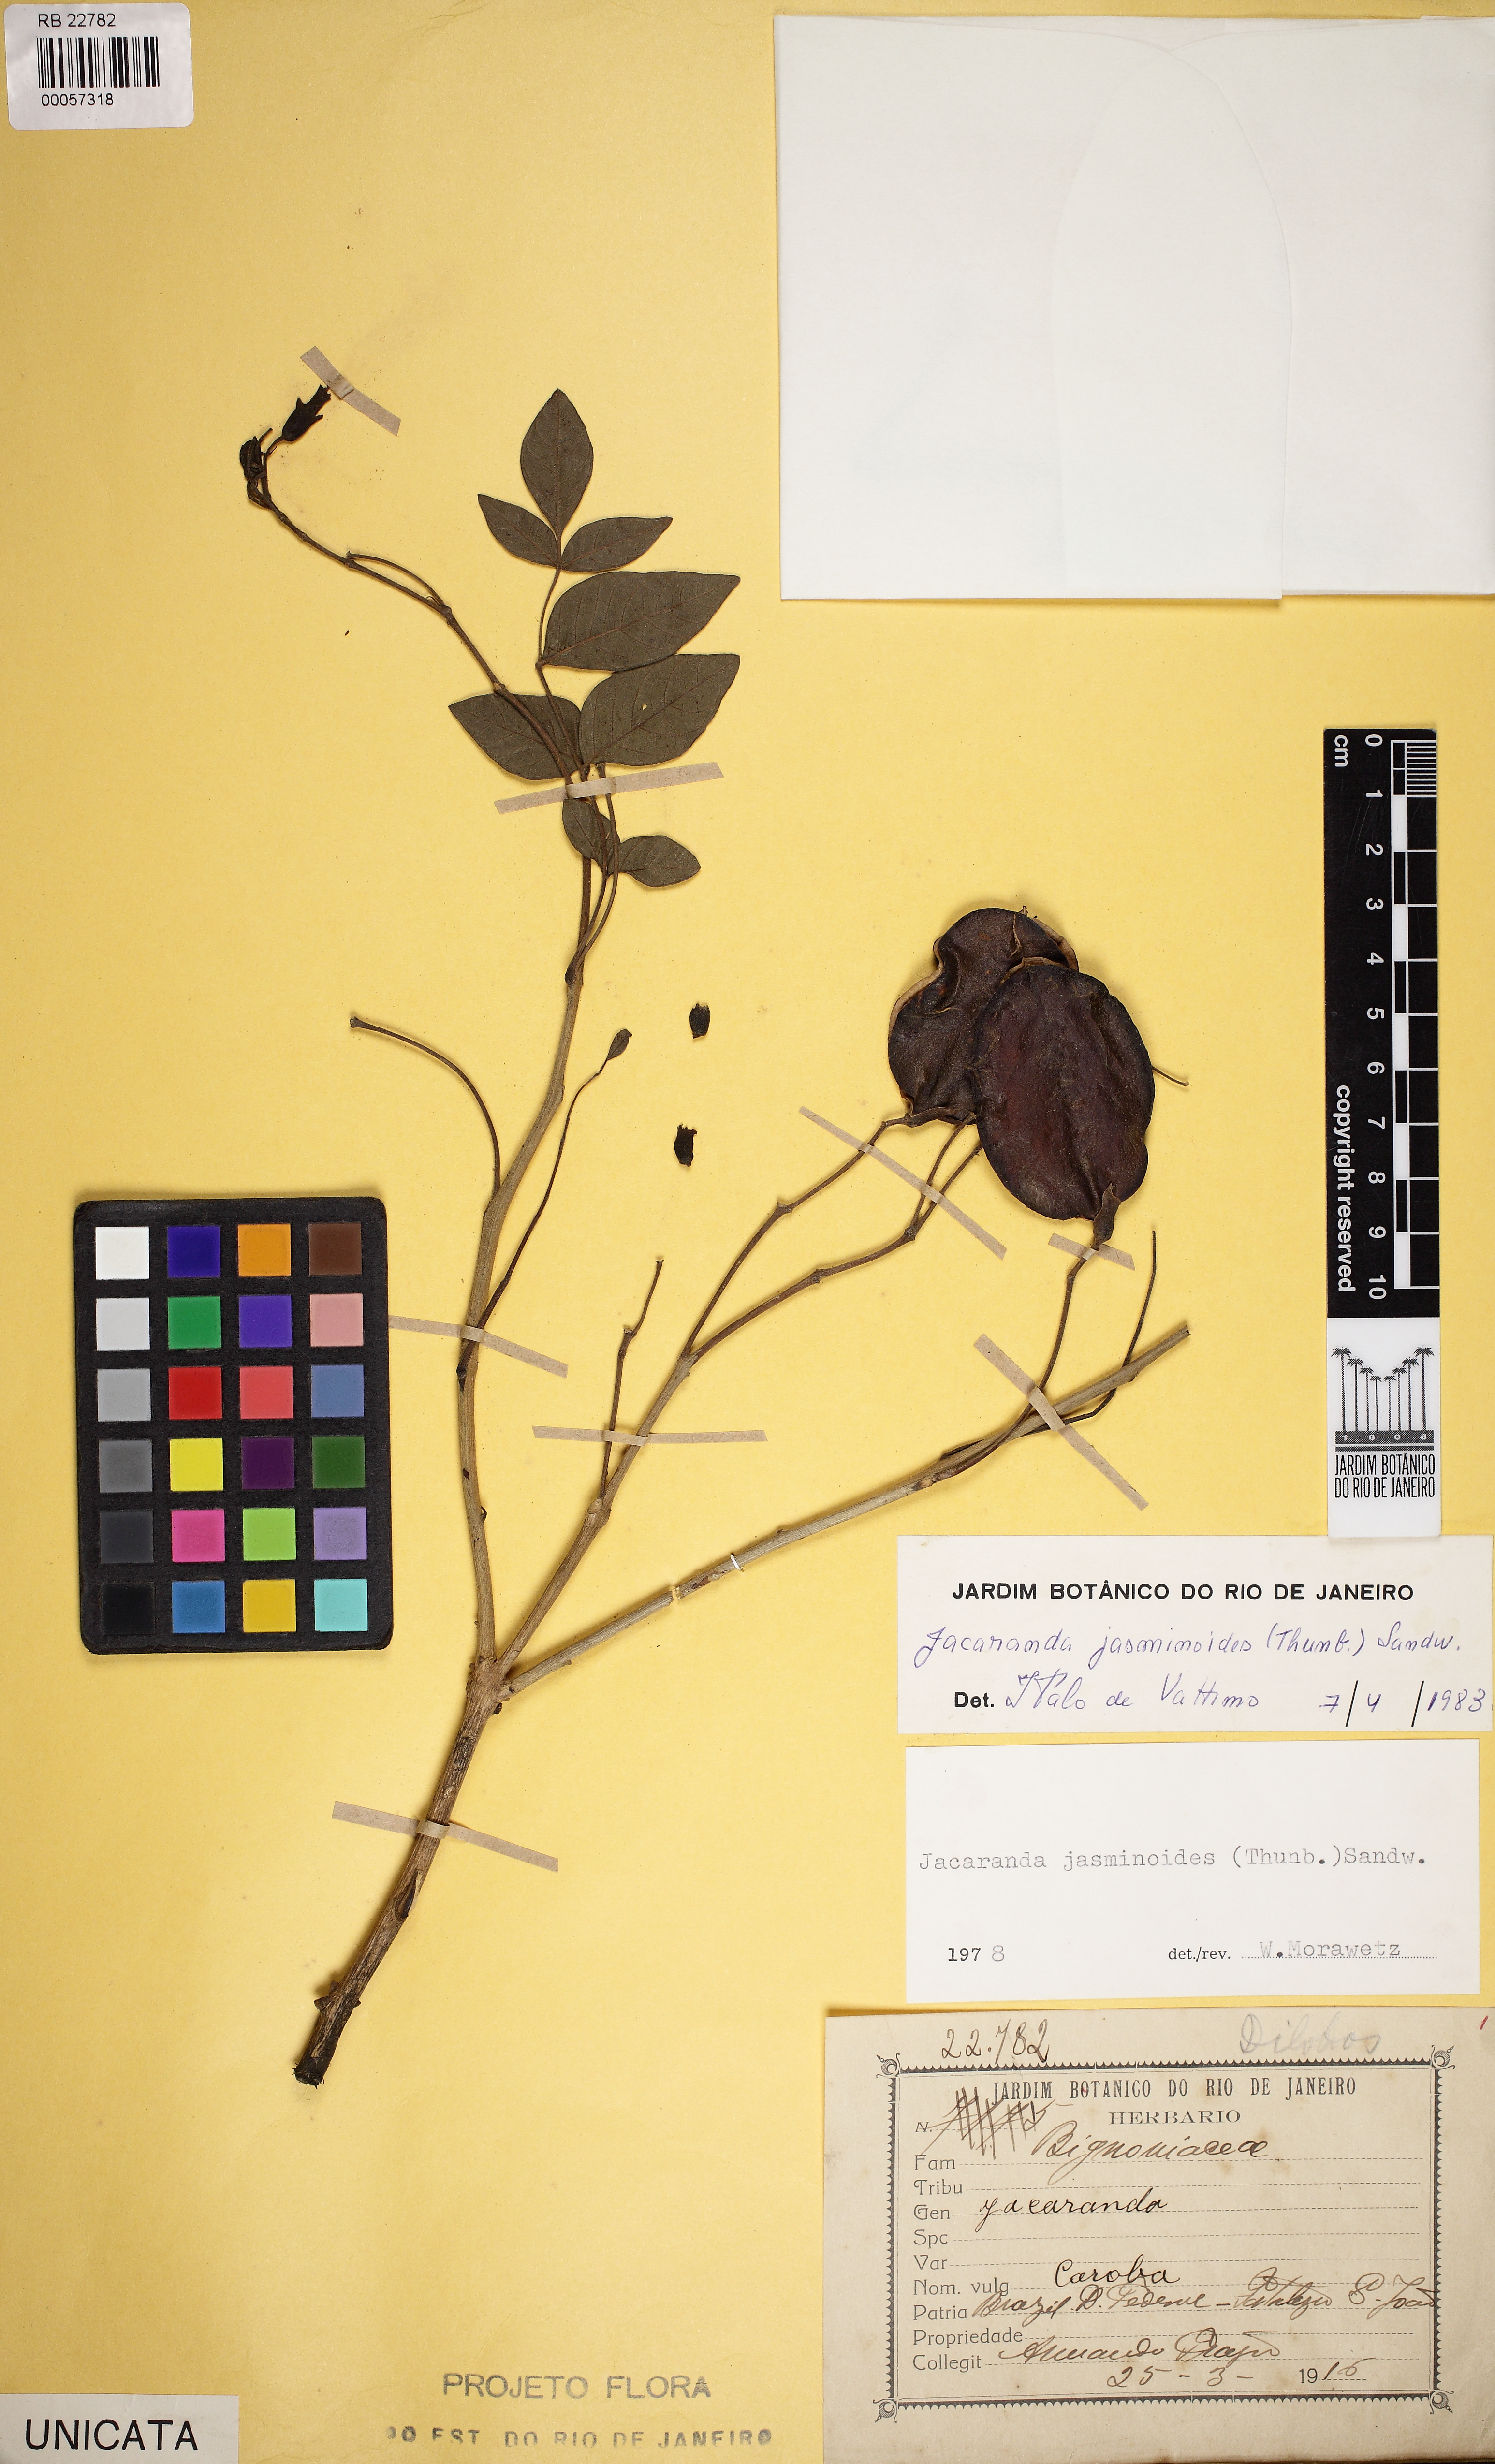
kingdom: Plantae
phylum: Tracheophyta
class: Magnoliopsida
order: Lamiales
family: Bignoniaceae
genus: Jacaranda
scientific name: Jacaranda jasminoides
